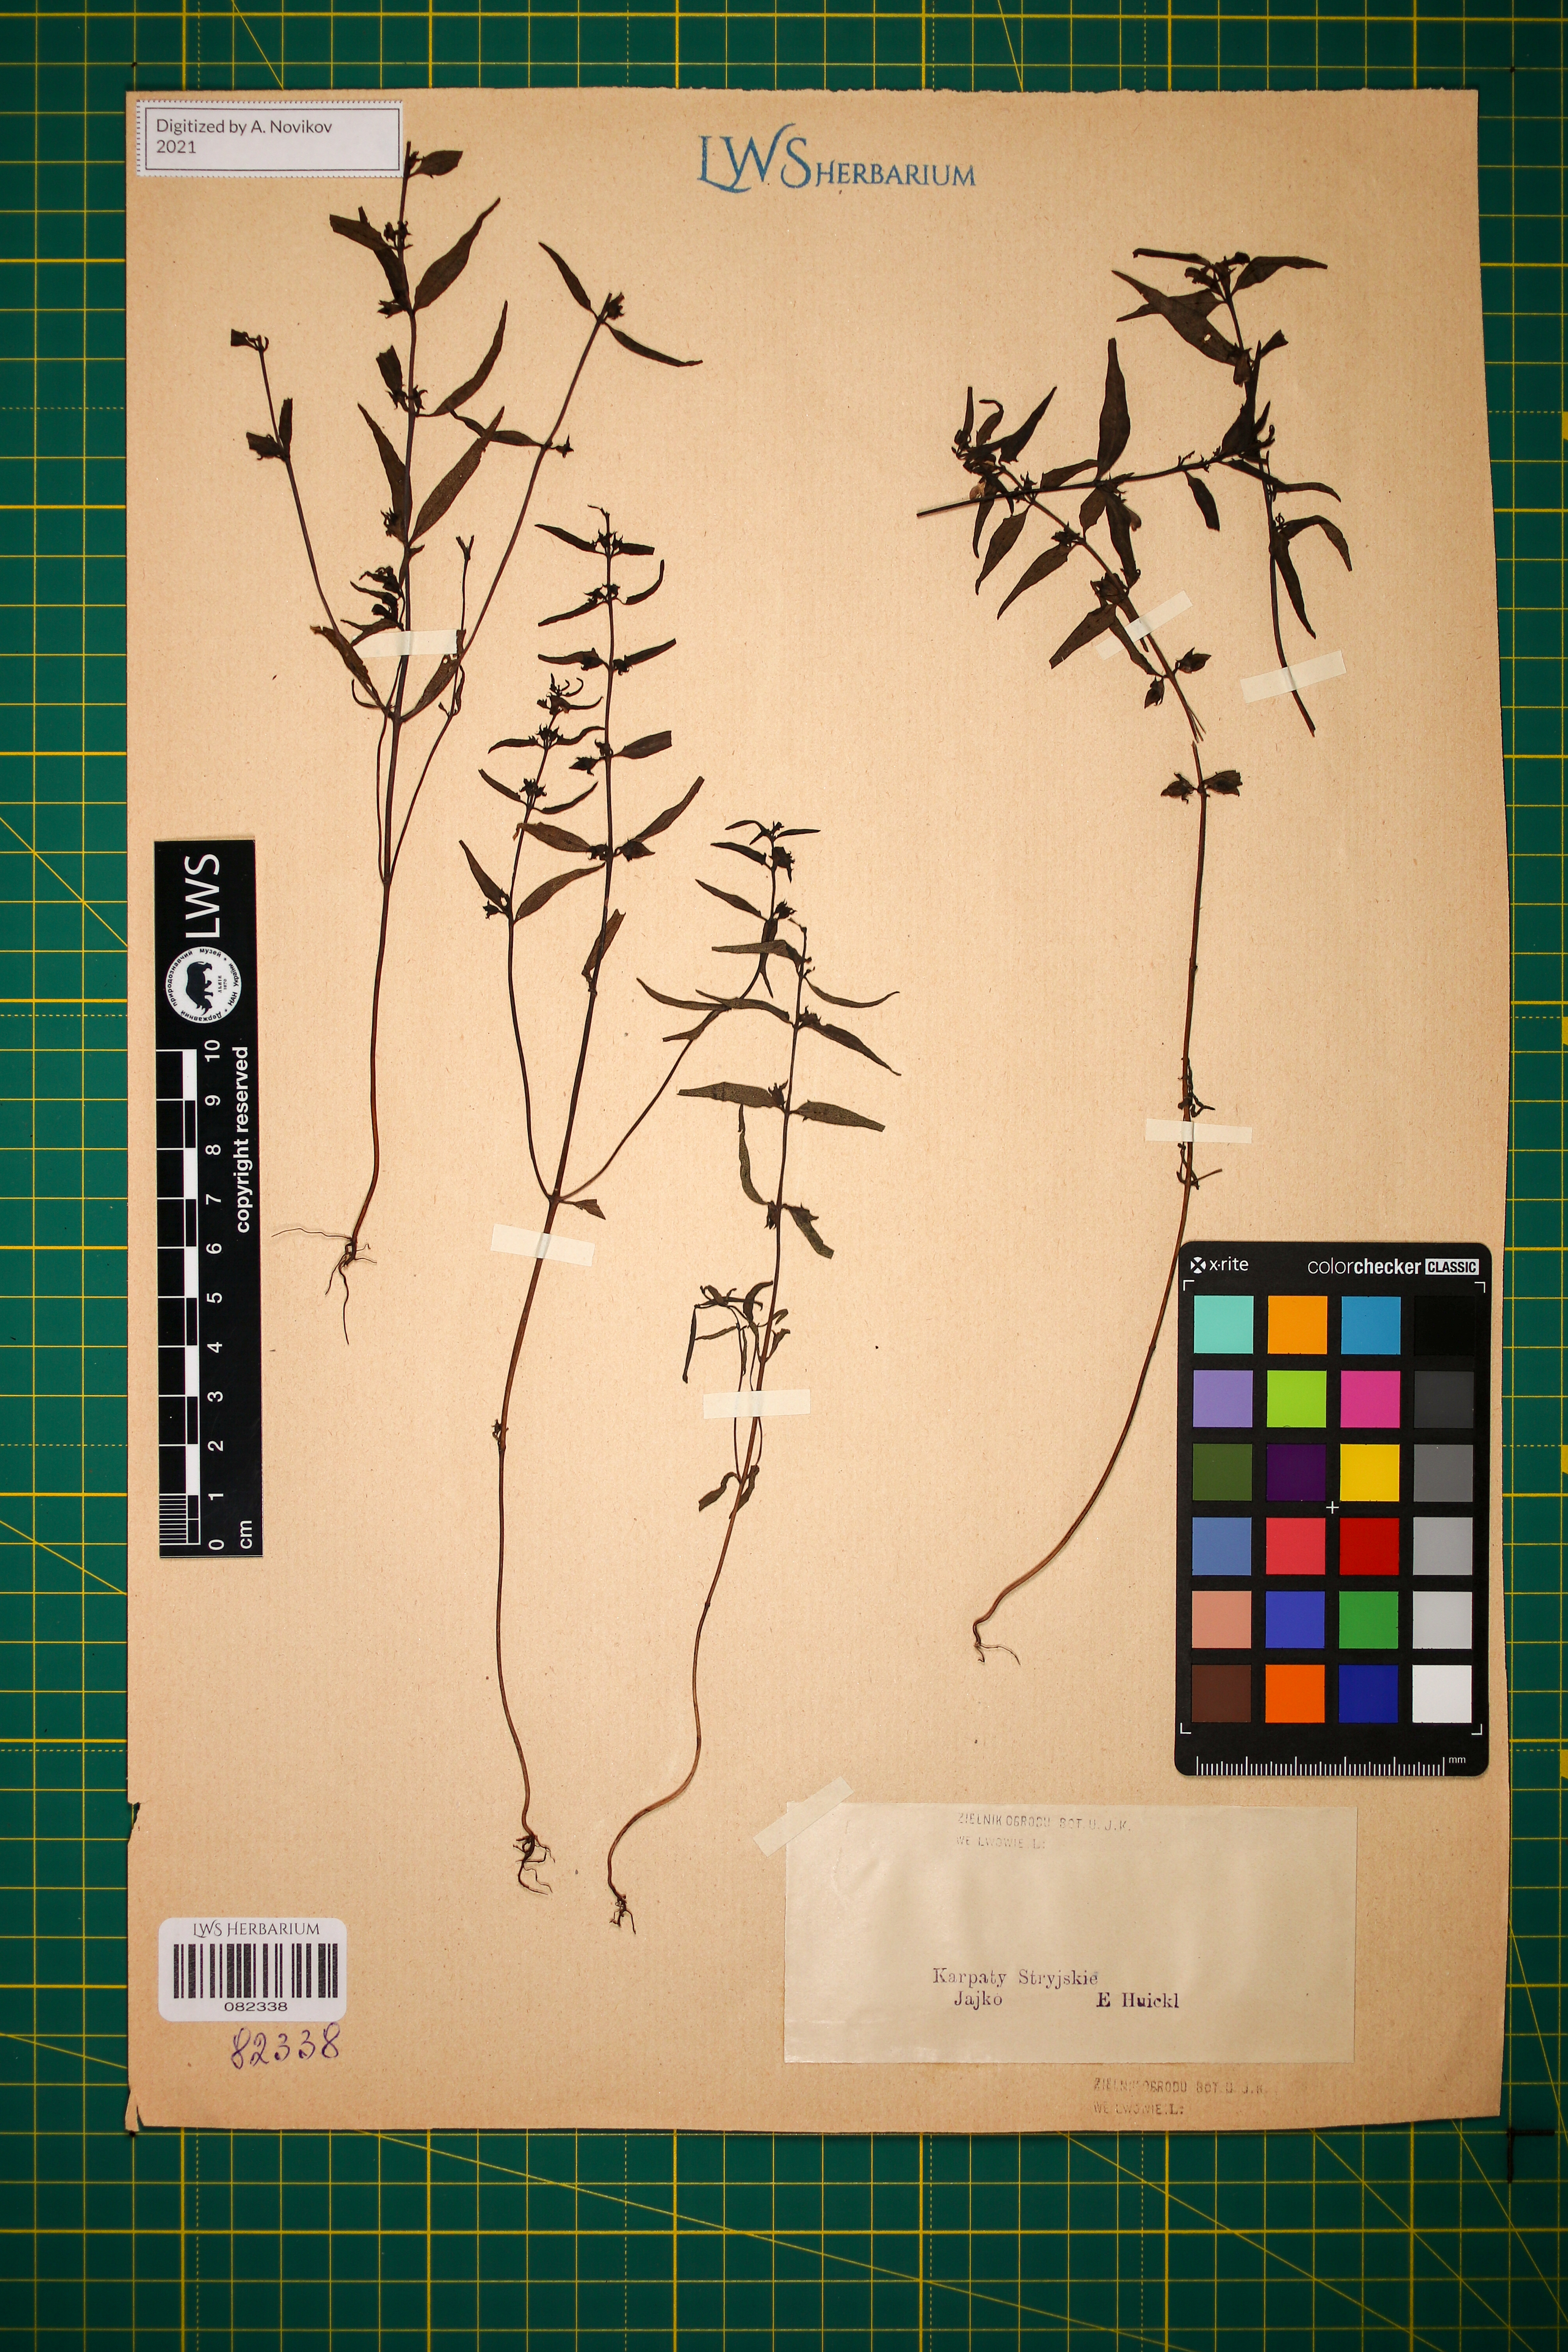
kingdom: Plantae
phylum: Tracheophyta
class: Magnoliopsida
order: Lamiales
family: Orobanchaceae
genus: Melampyrum
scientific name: Melampyrum saxosum
